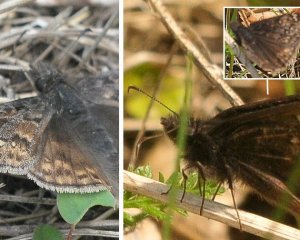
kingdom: Animalia
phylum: Arthropoda
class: Insecta
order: Lepidoptera
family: Hesperiidae
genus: Gesta
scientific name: Gesta
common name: Juvenal's Duskywing
